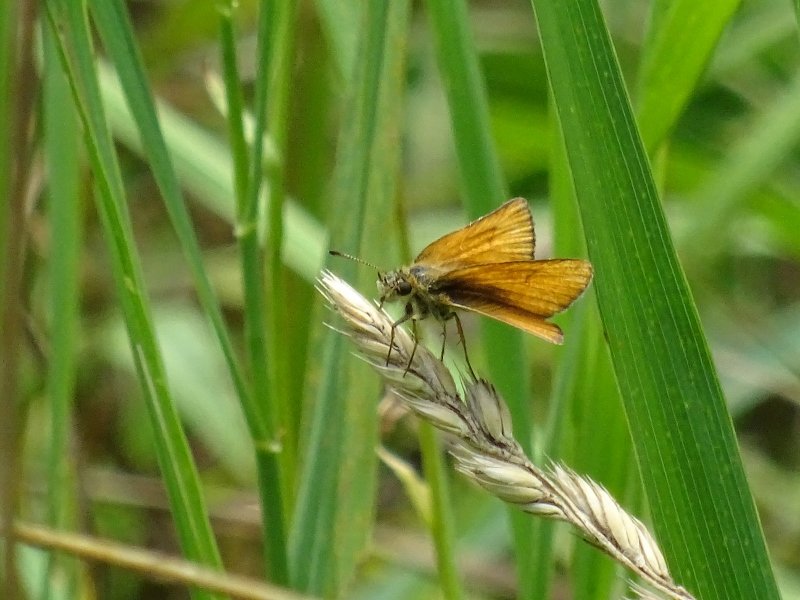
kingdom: Animalia
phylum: Arthropoda
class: Insecta
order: Lepidoptera
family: Hesperiidae
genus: Thymelicus
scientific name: Thymelicus lineola
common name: European Skipper
